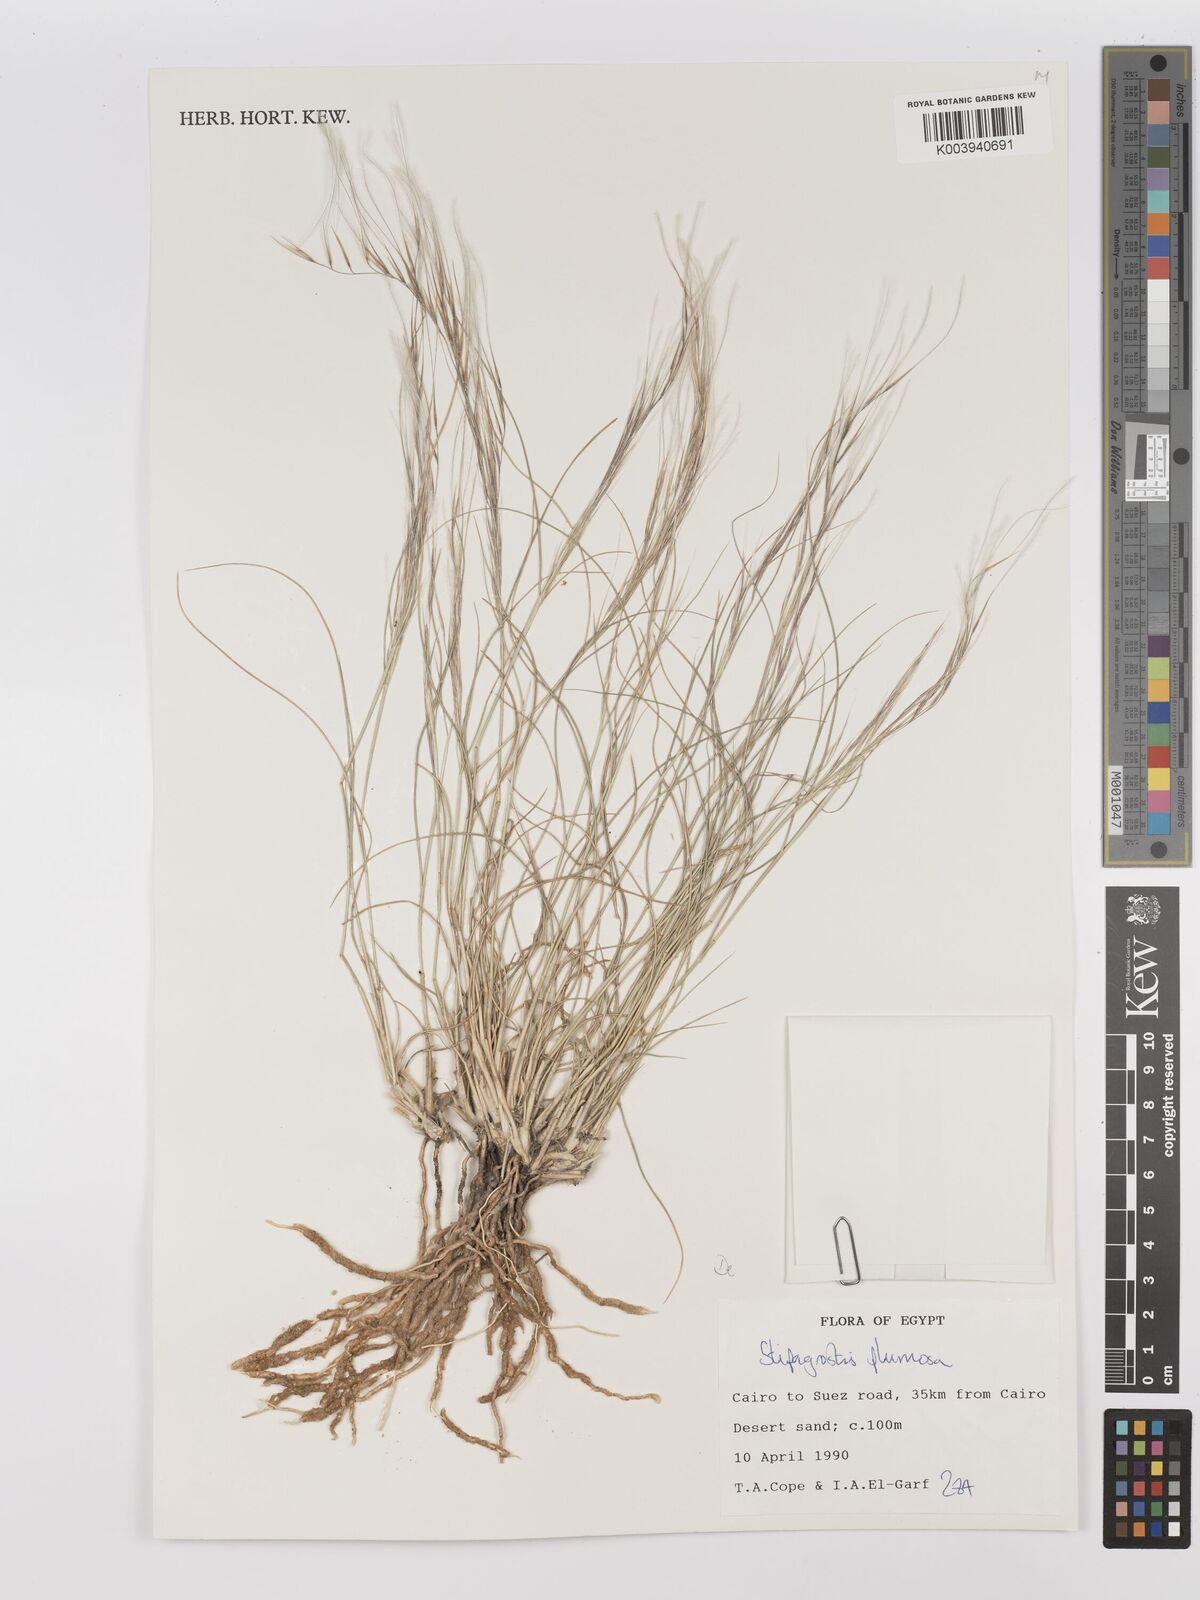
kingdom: Plantae
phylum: Tracheophyta
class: Liliopsida
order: Poales
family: Poaceae
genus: Stipagrostis
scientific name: Stipagrostis plumosa
